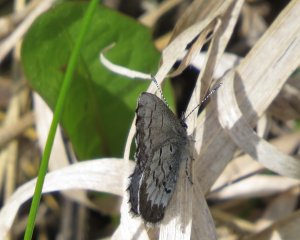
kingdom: Animalia
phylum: Arthropoda
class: Insecta
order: Lepidoptera
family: Lycaenidae
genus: Celastrina
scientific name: Celastrina lucia
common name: Northern Spring Azure
